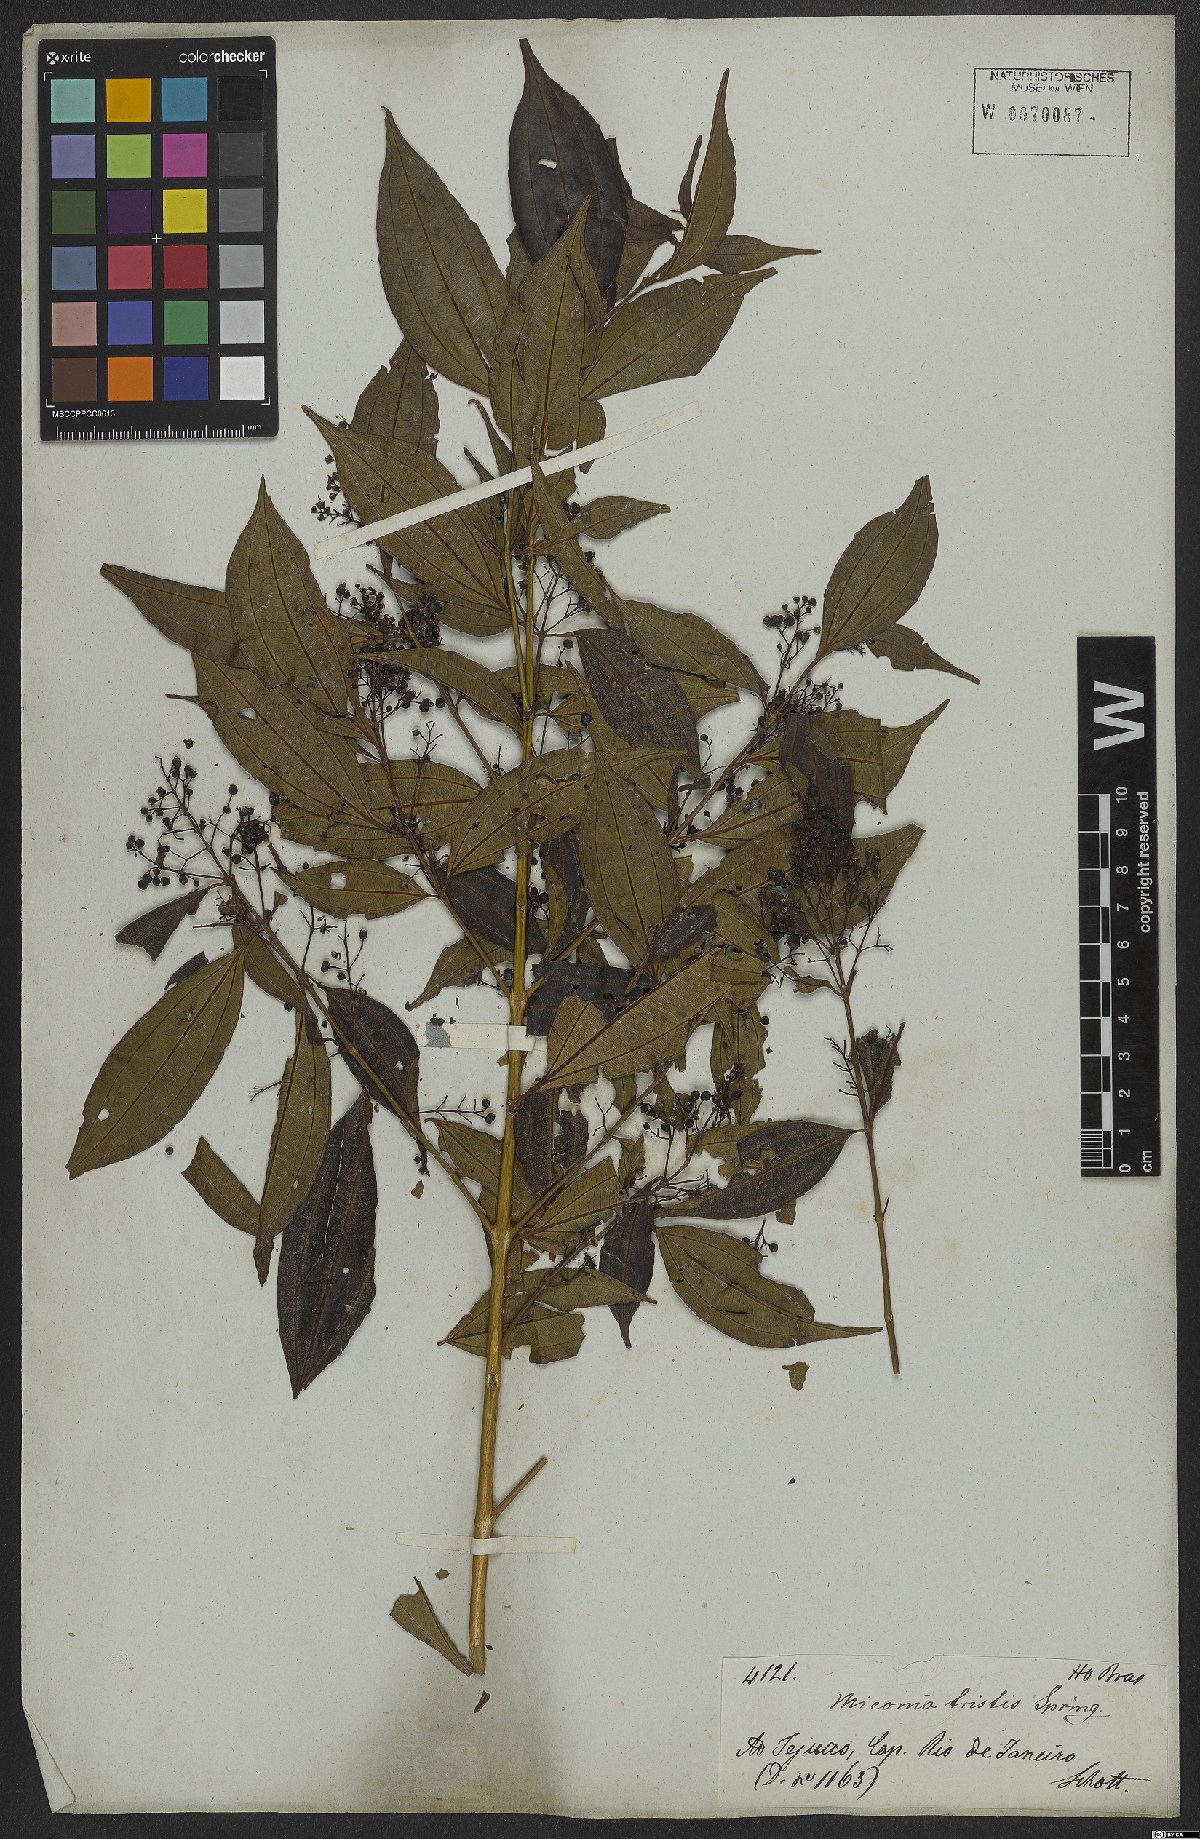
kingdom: Plantae
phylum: Tracheophyta
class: Magnoliopsida
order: Myrtales
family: Melastomataceae
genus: Miconia
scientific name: Miconia tristis
